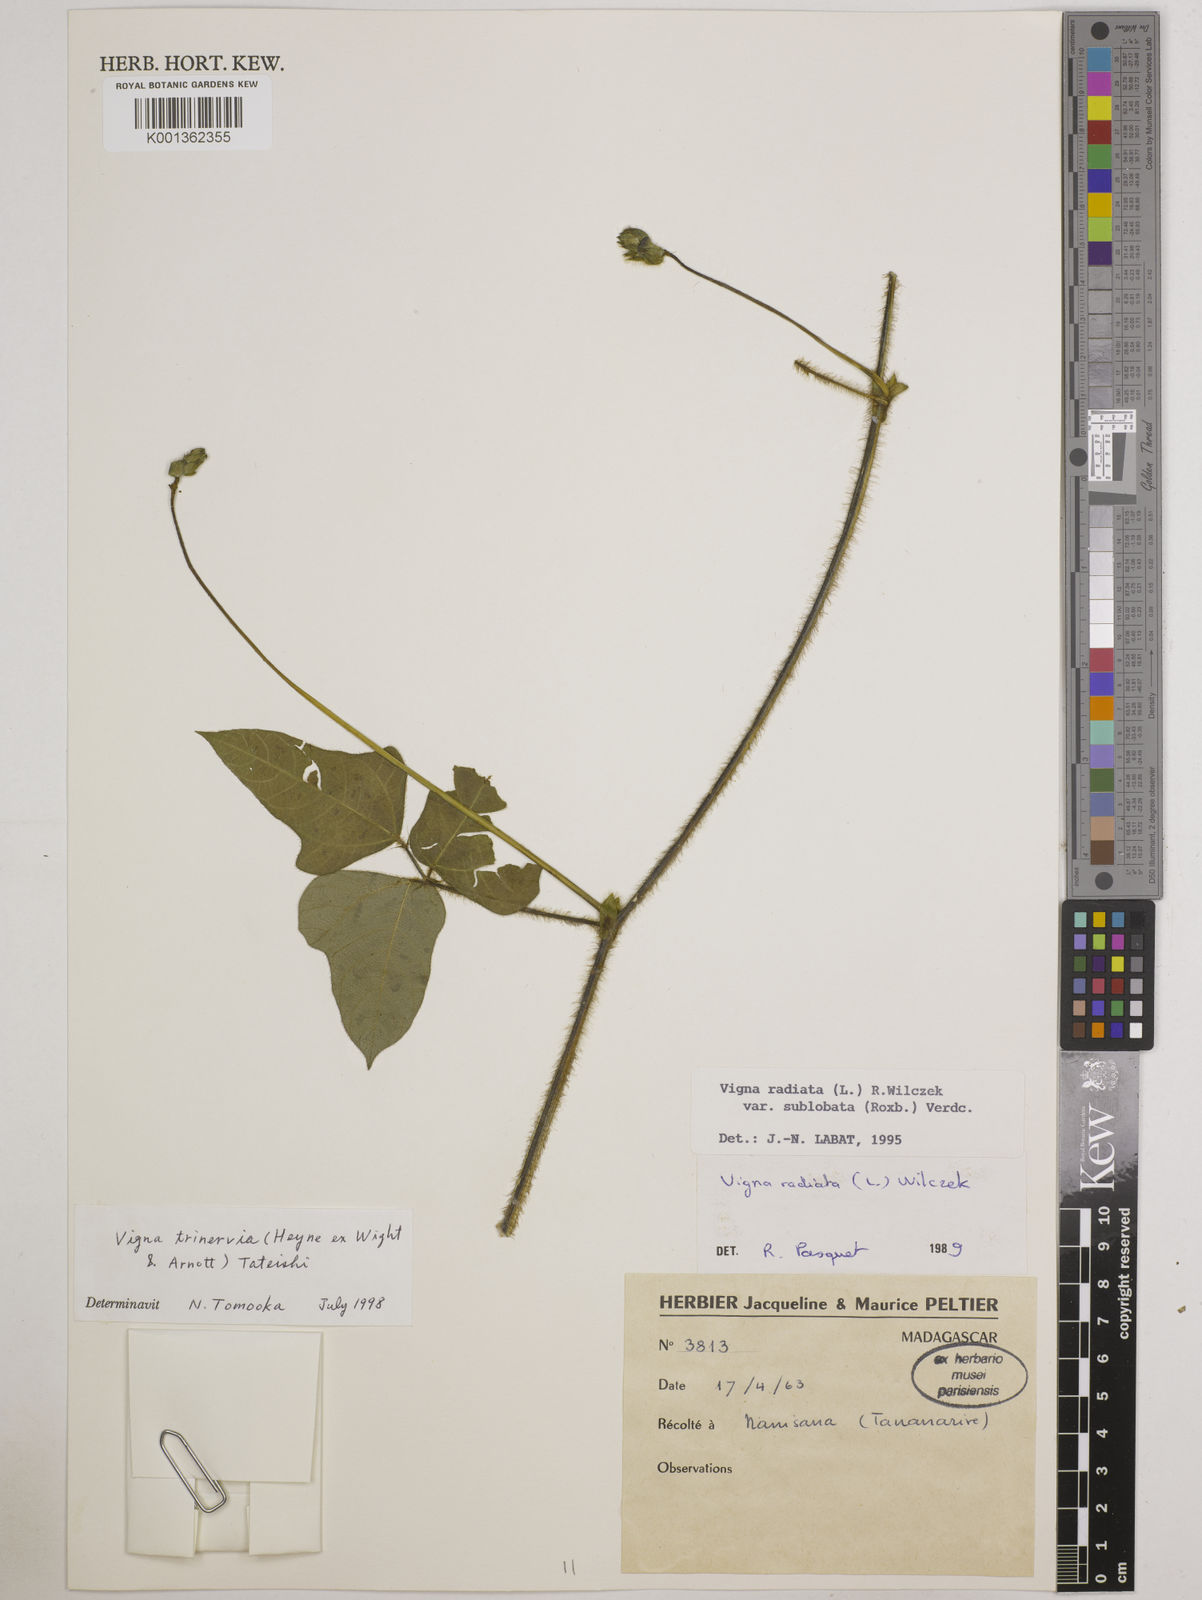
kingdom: Plantae
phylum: Tracheophyta
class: Magnoliopsida
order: Fabales
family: Fabaceae
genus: Vigna
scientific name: Vigna radiata
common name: Mung-bean
